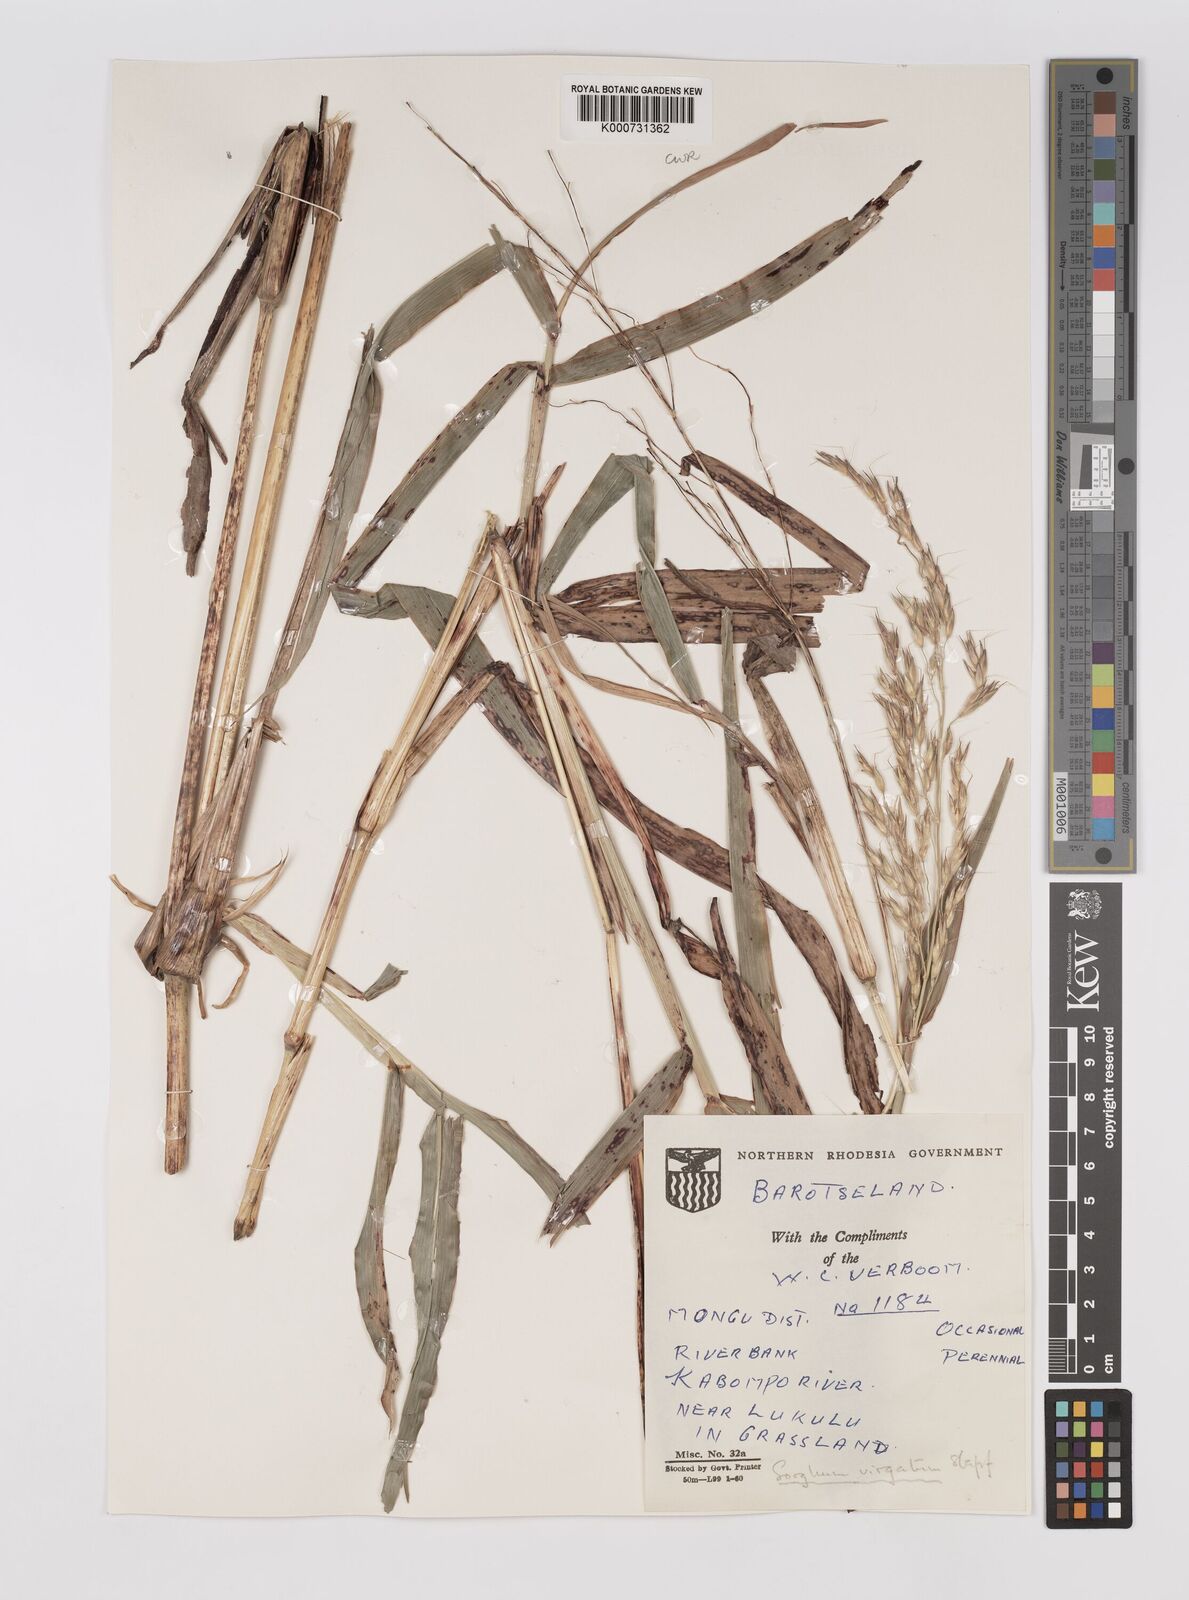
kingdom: Plantae
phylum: Tracheophyta
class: Liliopsida
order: Poales
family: Poaceae
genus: Sorghum
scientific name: Sorghum virgatum
